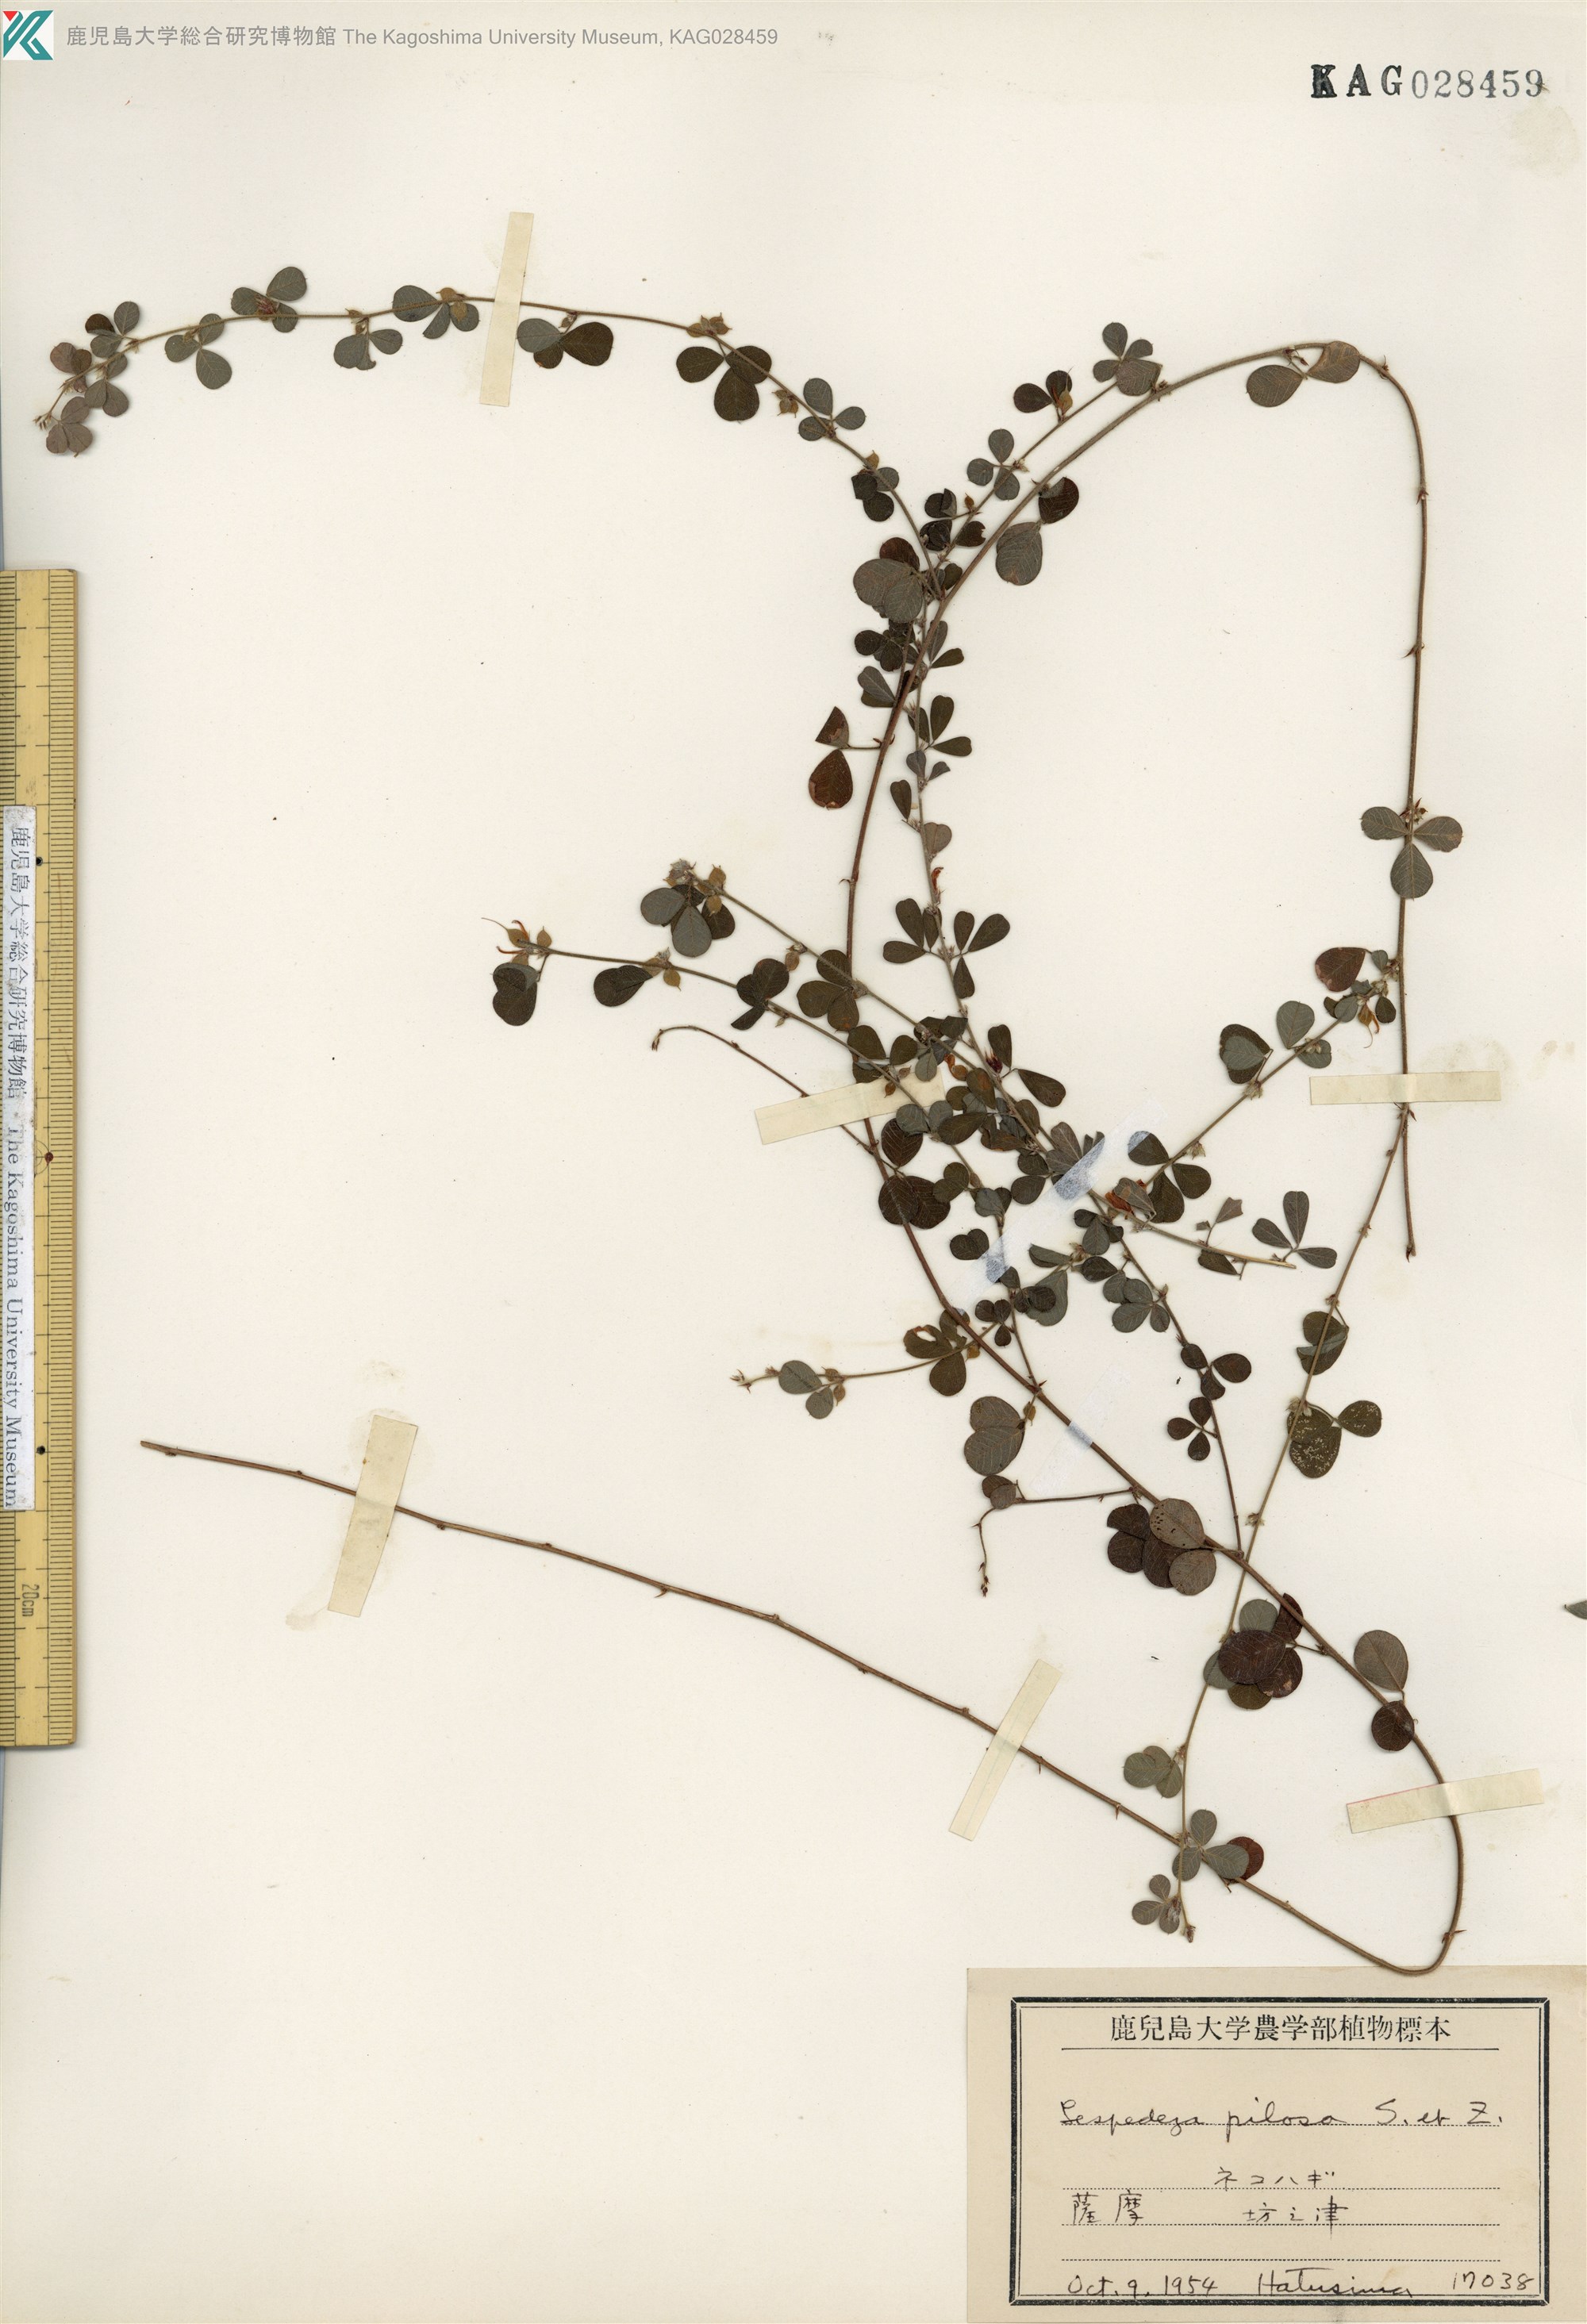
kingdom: Plantae
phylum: Tracheophyta
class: Magnoliopsida
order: Fabales
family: Fabaceae
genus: Lespedeza
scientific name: Lespedeza pilosa
